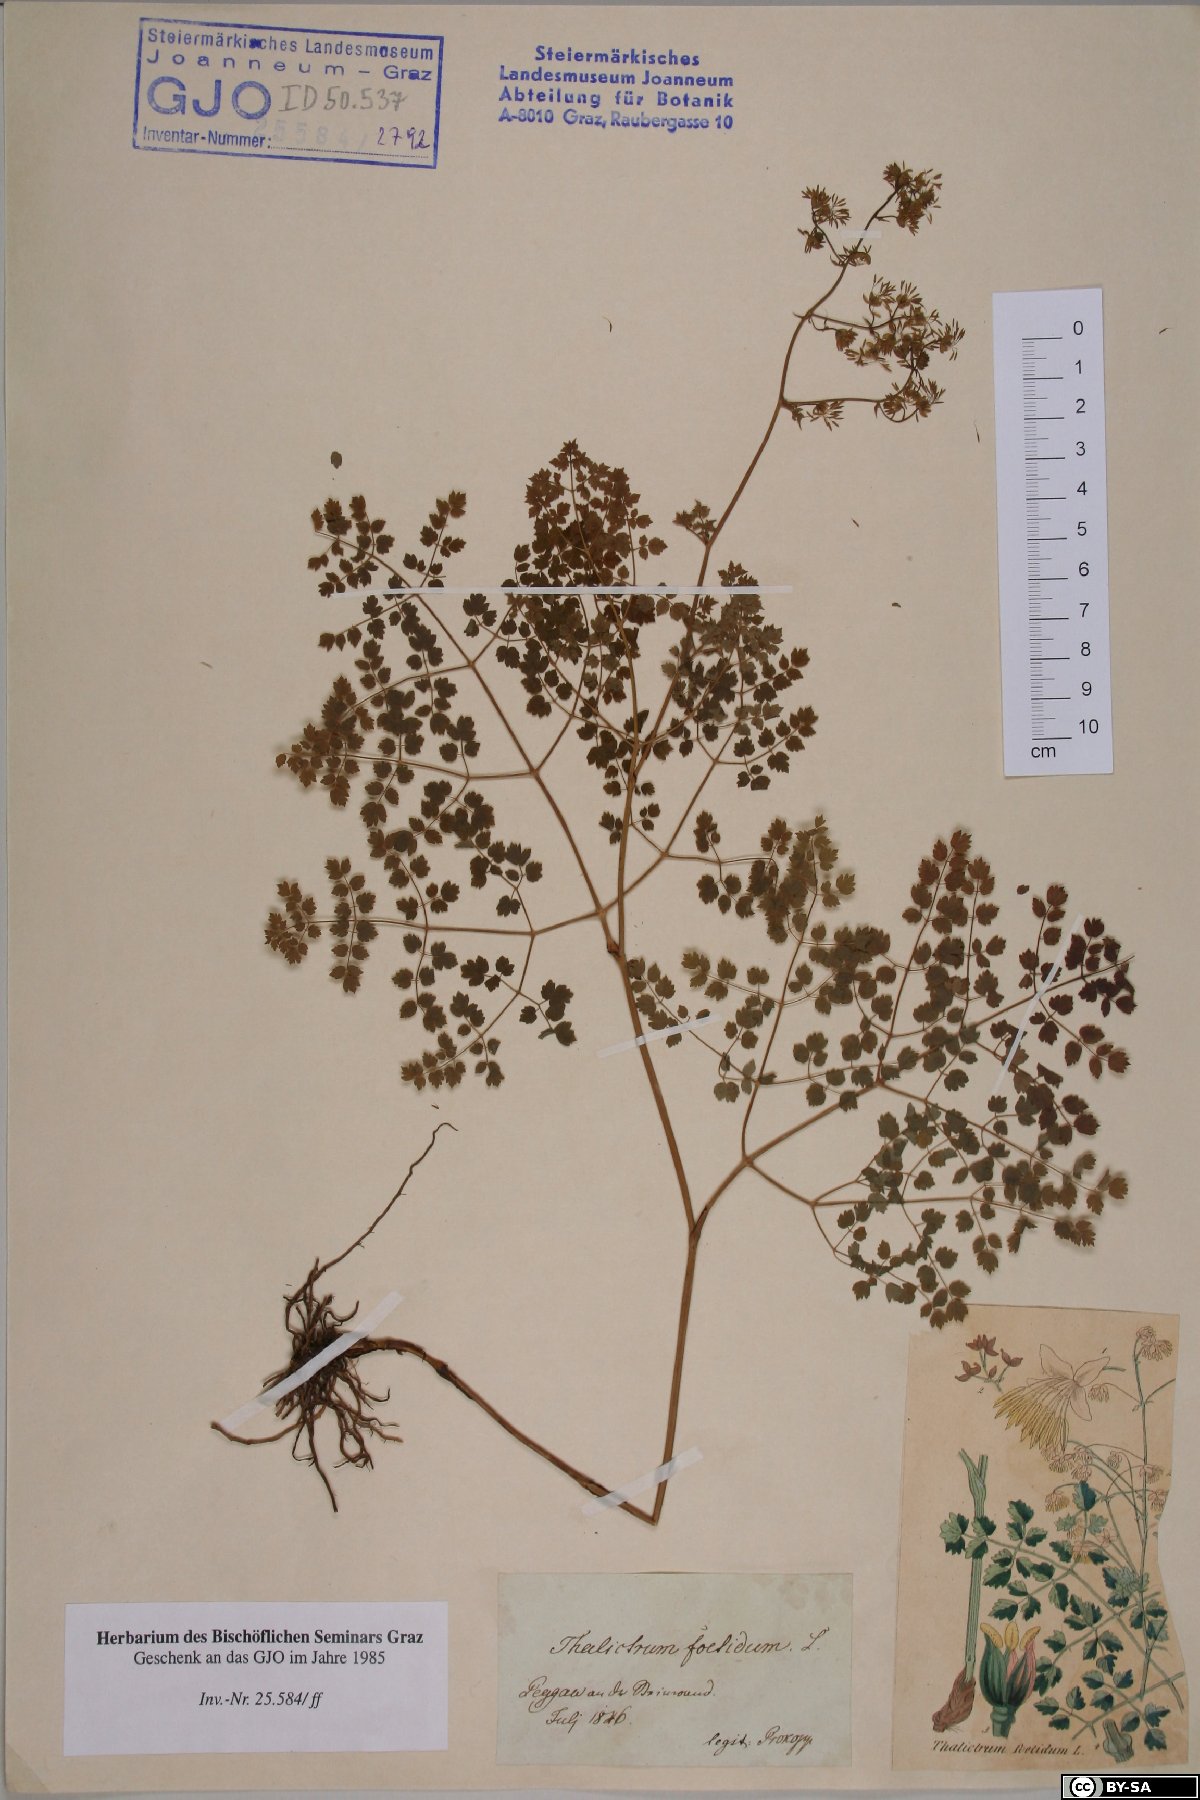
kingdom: Plantae
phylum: Tracheophyta
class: Magnoliopsida
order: Ranunculales
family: Ranunculaceae
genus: Thalictrum
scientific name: Thalictrum foetidum
